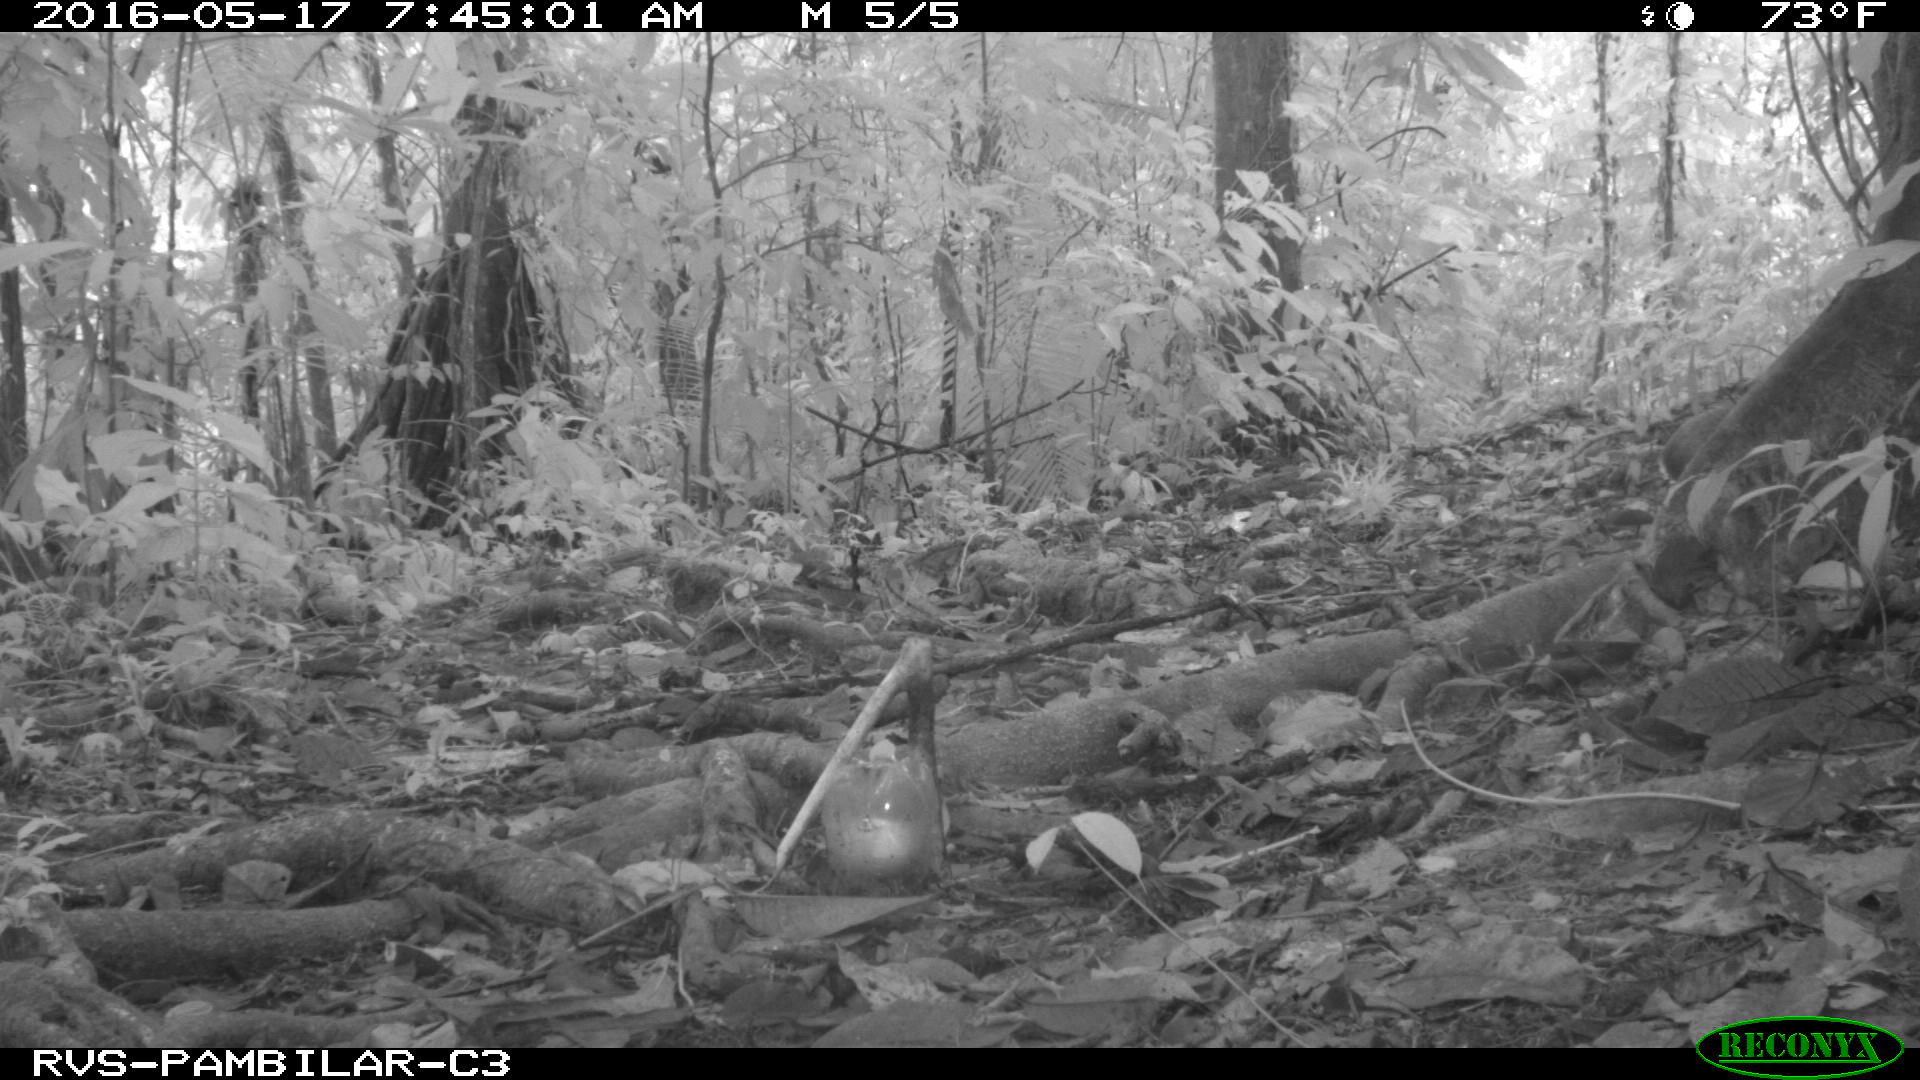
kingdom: Animalia
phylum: Chordata
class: Mammalia
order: Rodentia
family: Dasyproctidae
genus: Dasyprocta
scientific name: Dasyprocta punctata
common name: Central american agouti
